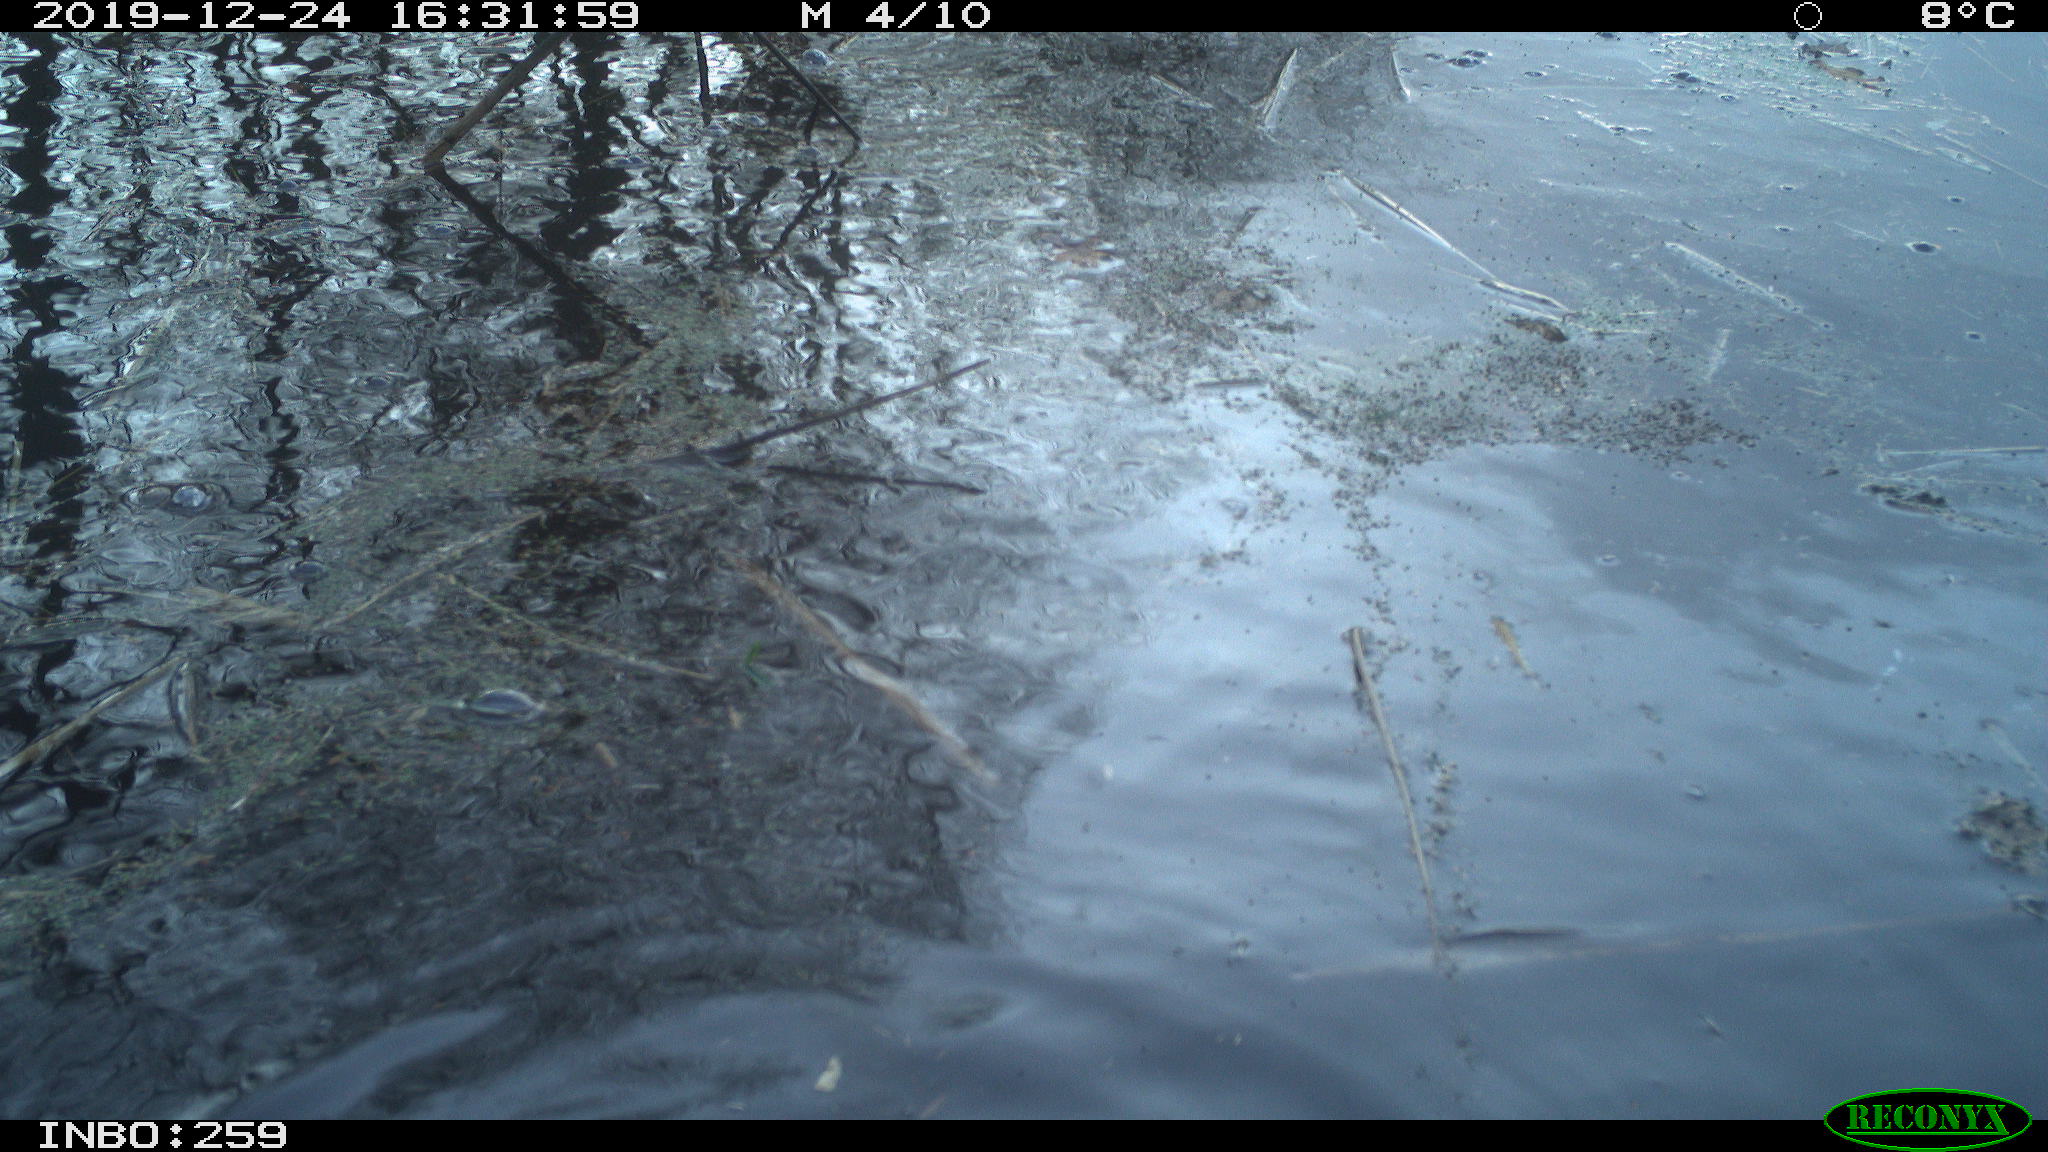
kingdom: Animalia
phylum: Chordata
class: Aves
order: Gruiformes
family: Rallidae
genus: Gallinula
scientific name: Gallinula chloropus
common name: Common moorhen
